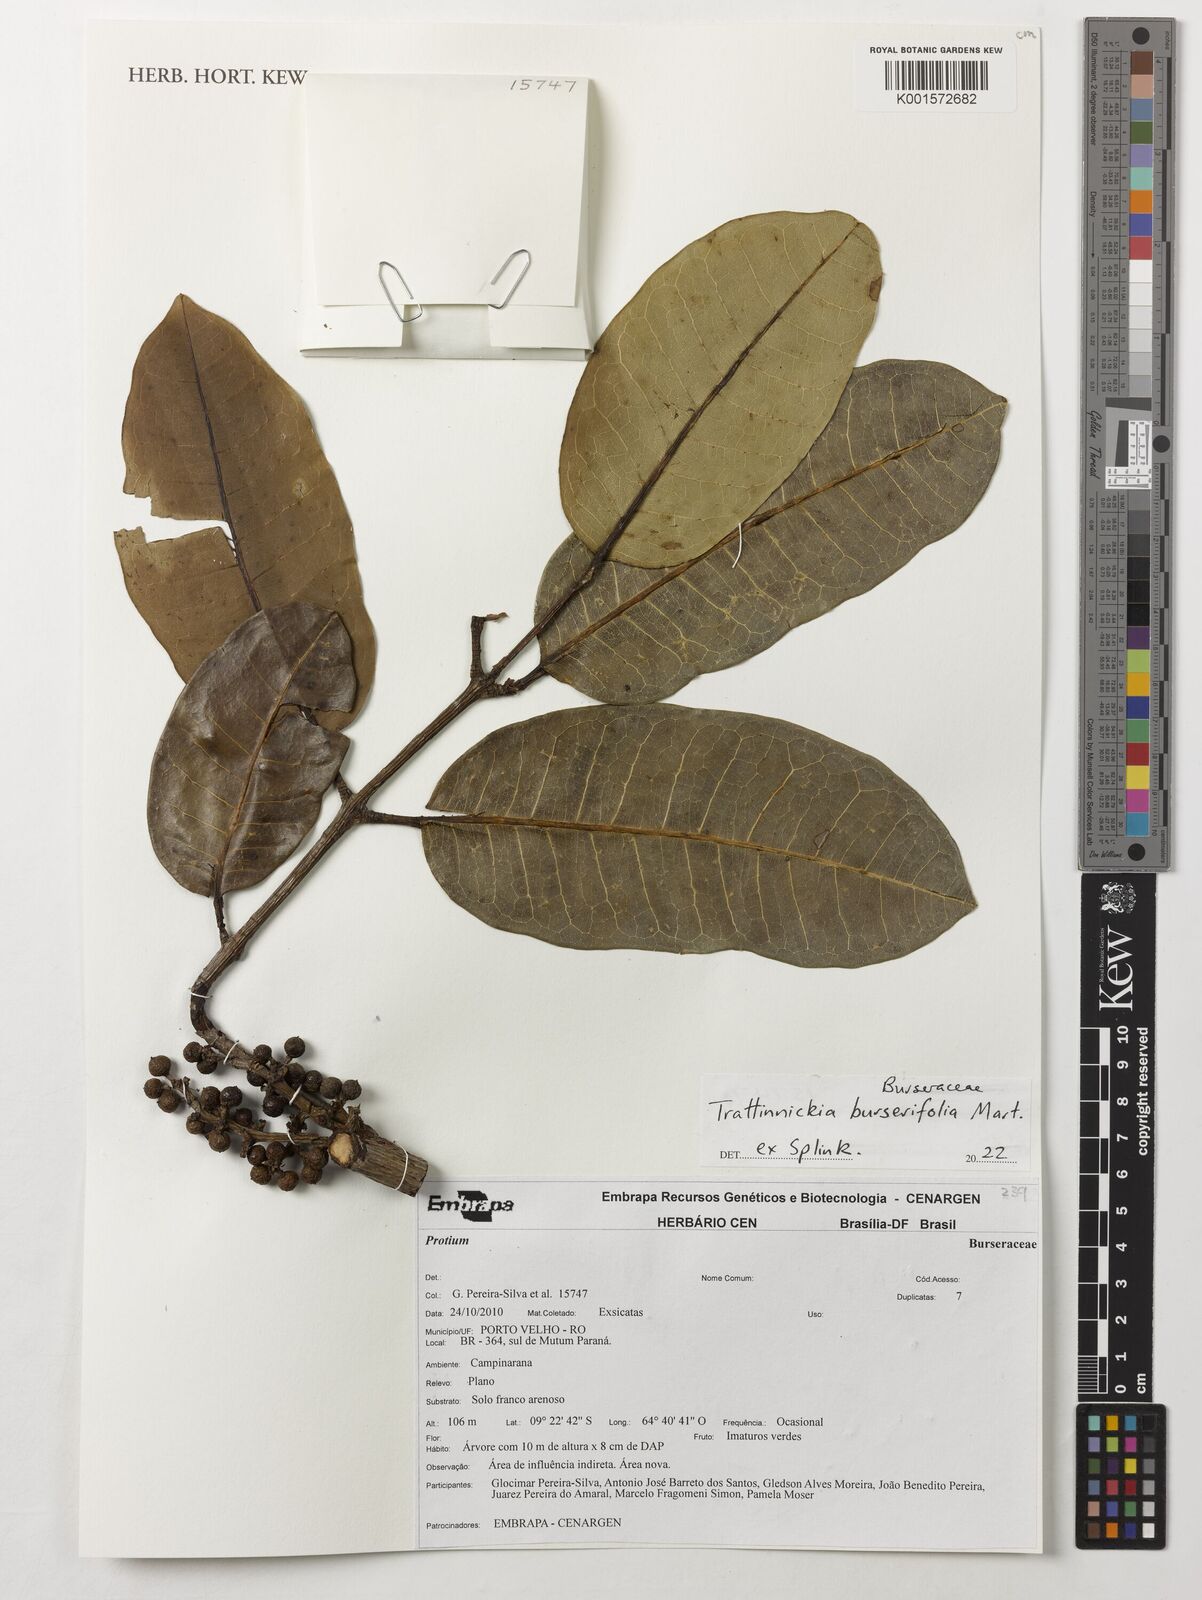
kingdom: Plantae
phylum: Tracheophyta
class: Magnoliopsida
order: Sapindales
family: Burseraceae
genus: Trattinnickia
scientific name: Trattinnickia burserifolia
